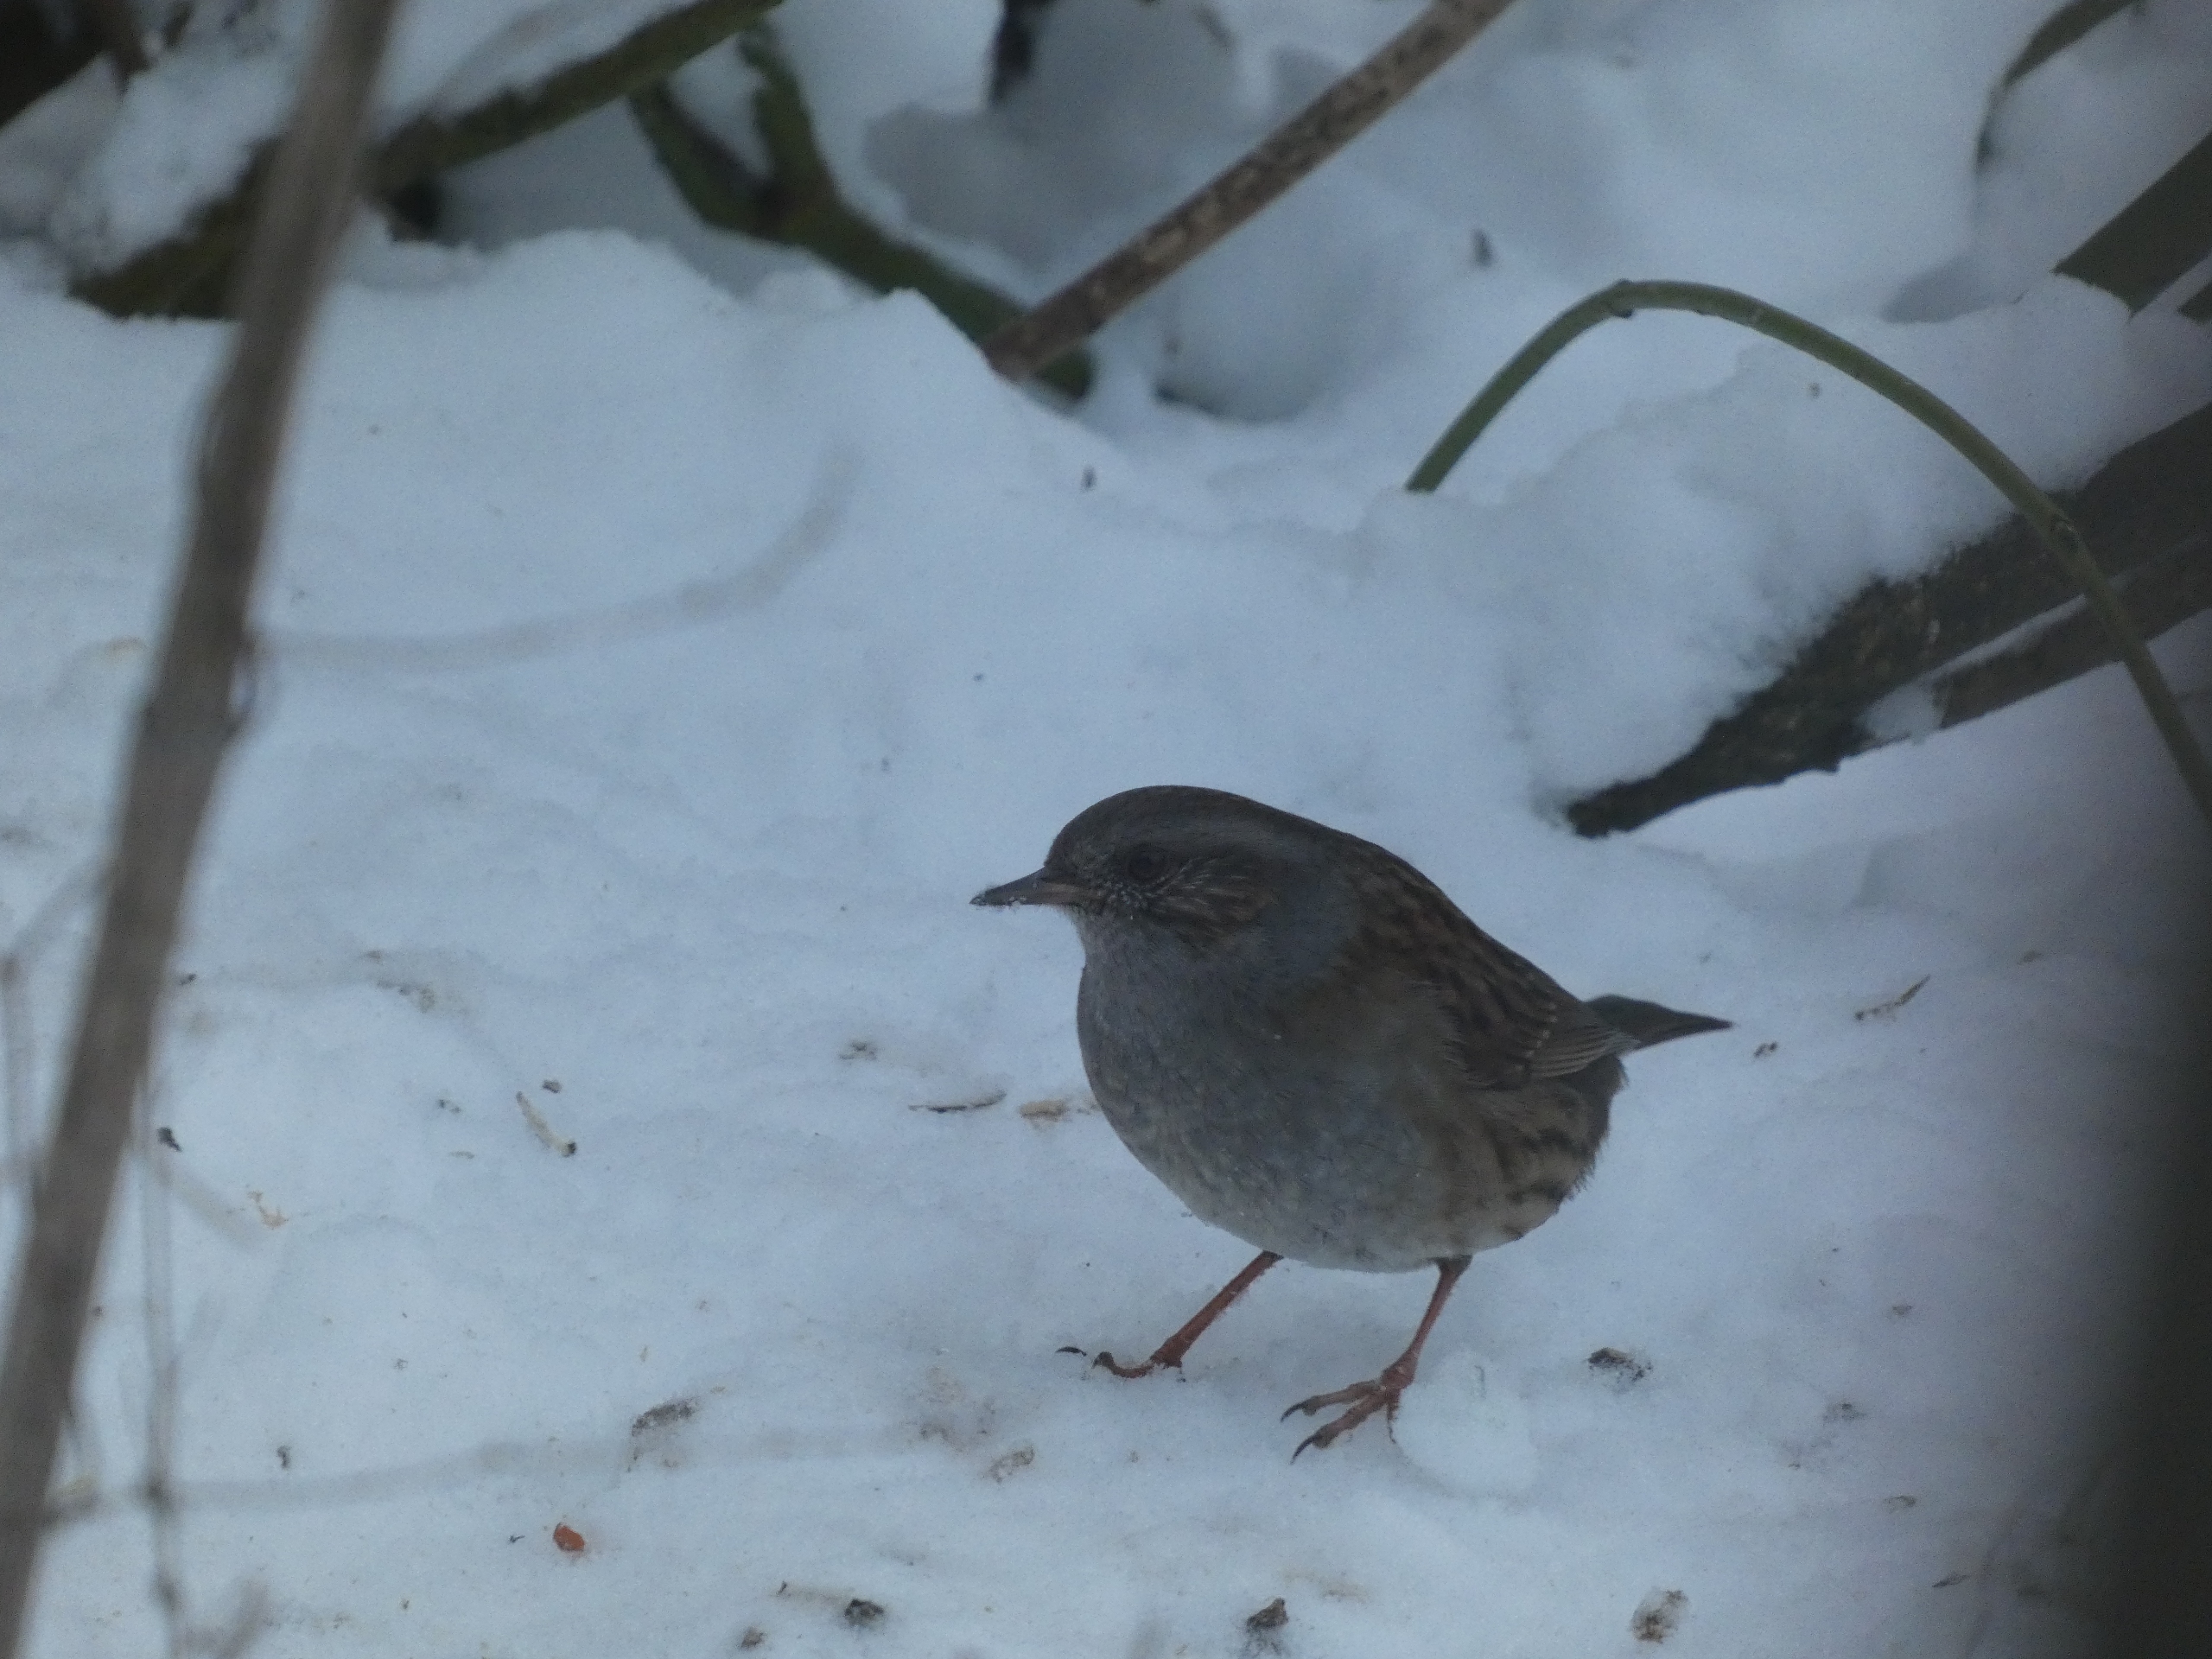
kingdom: Animalia
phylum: Chordata
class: Aves
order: Passeriformes
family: Prunellidae
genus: Prunella
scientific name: Prunella modularis
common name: Jernspurv
